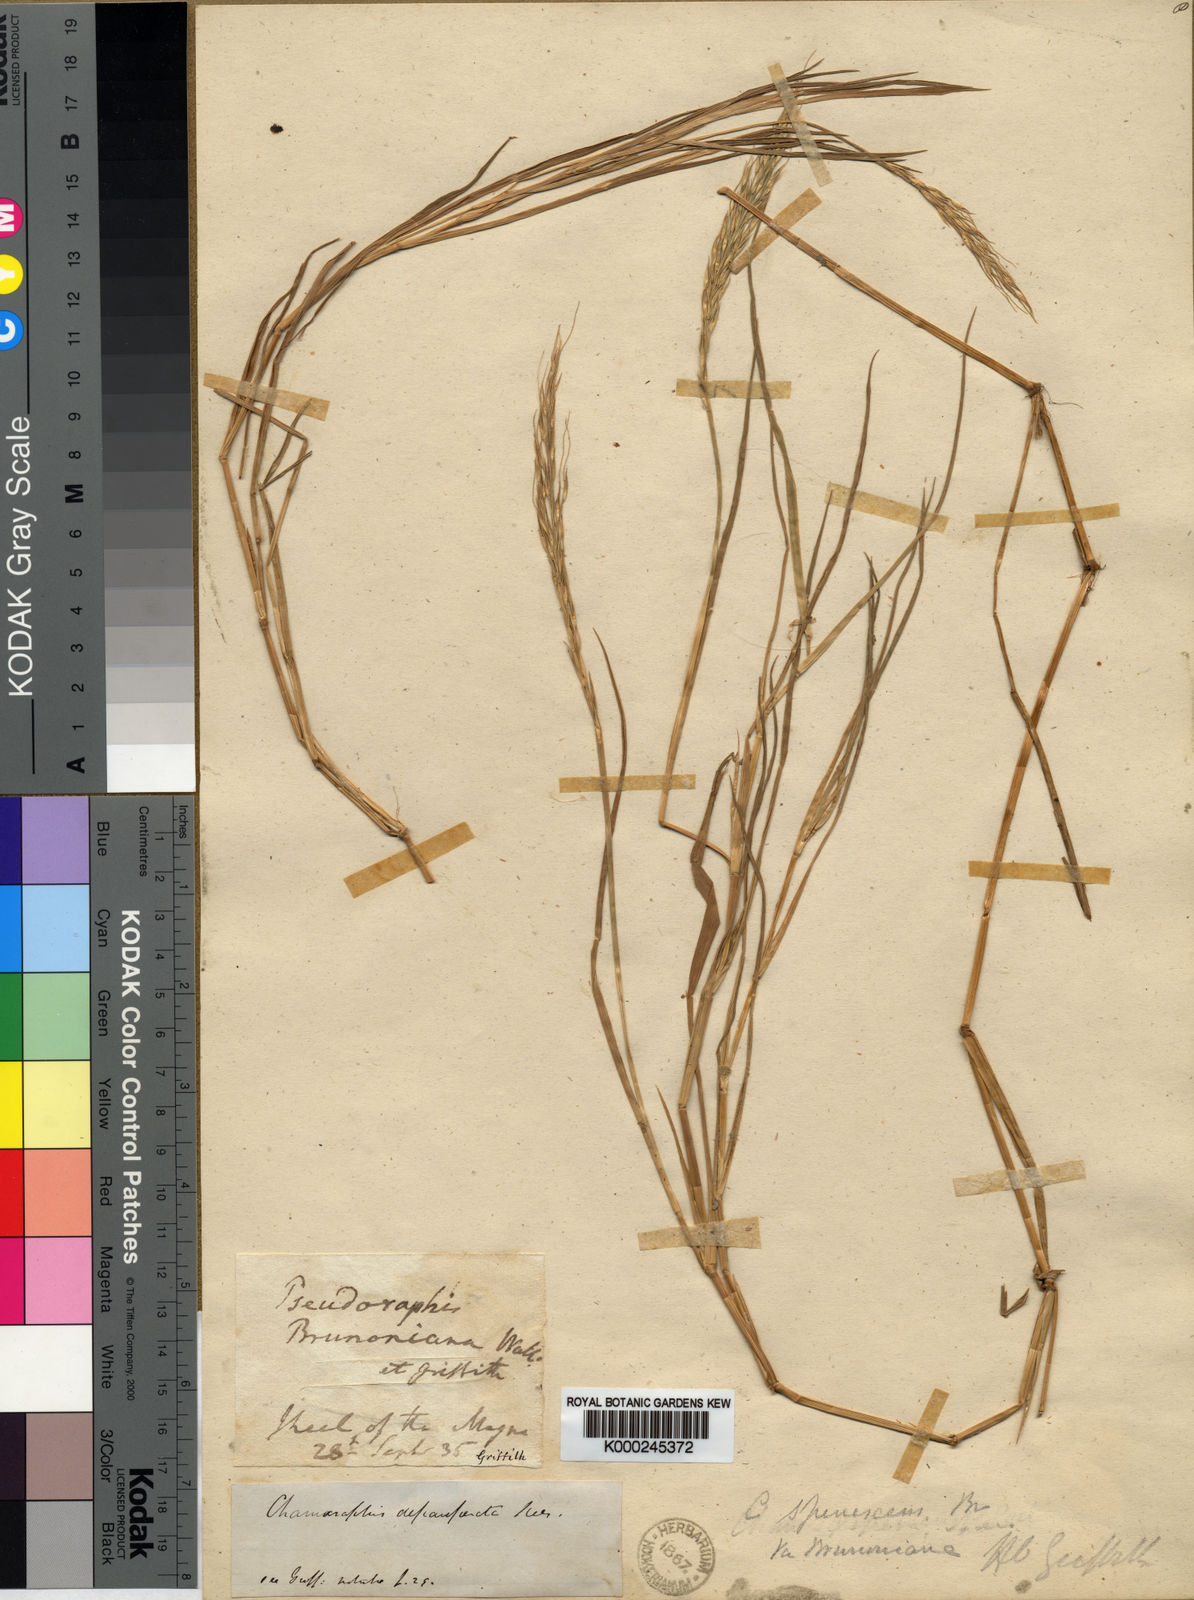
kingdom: Plantae
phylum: Tracheophyta
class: Liliopsida
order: Poales
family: Poaceae
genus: Pseudoraphis
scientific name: Pseudoraphis brunoniana
